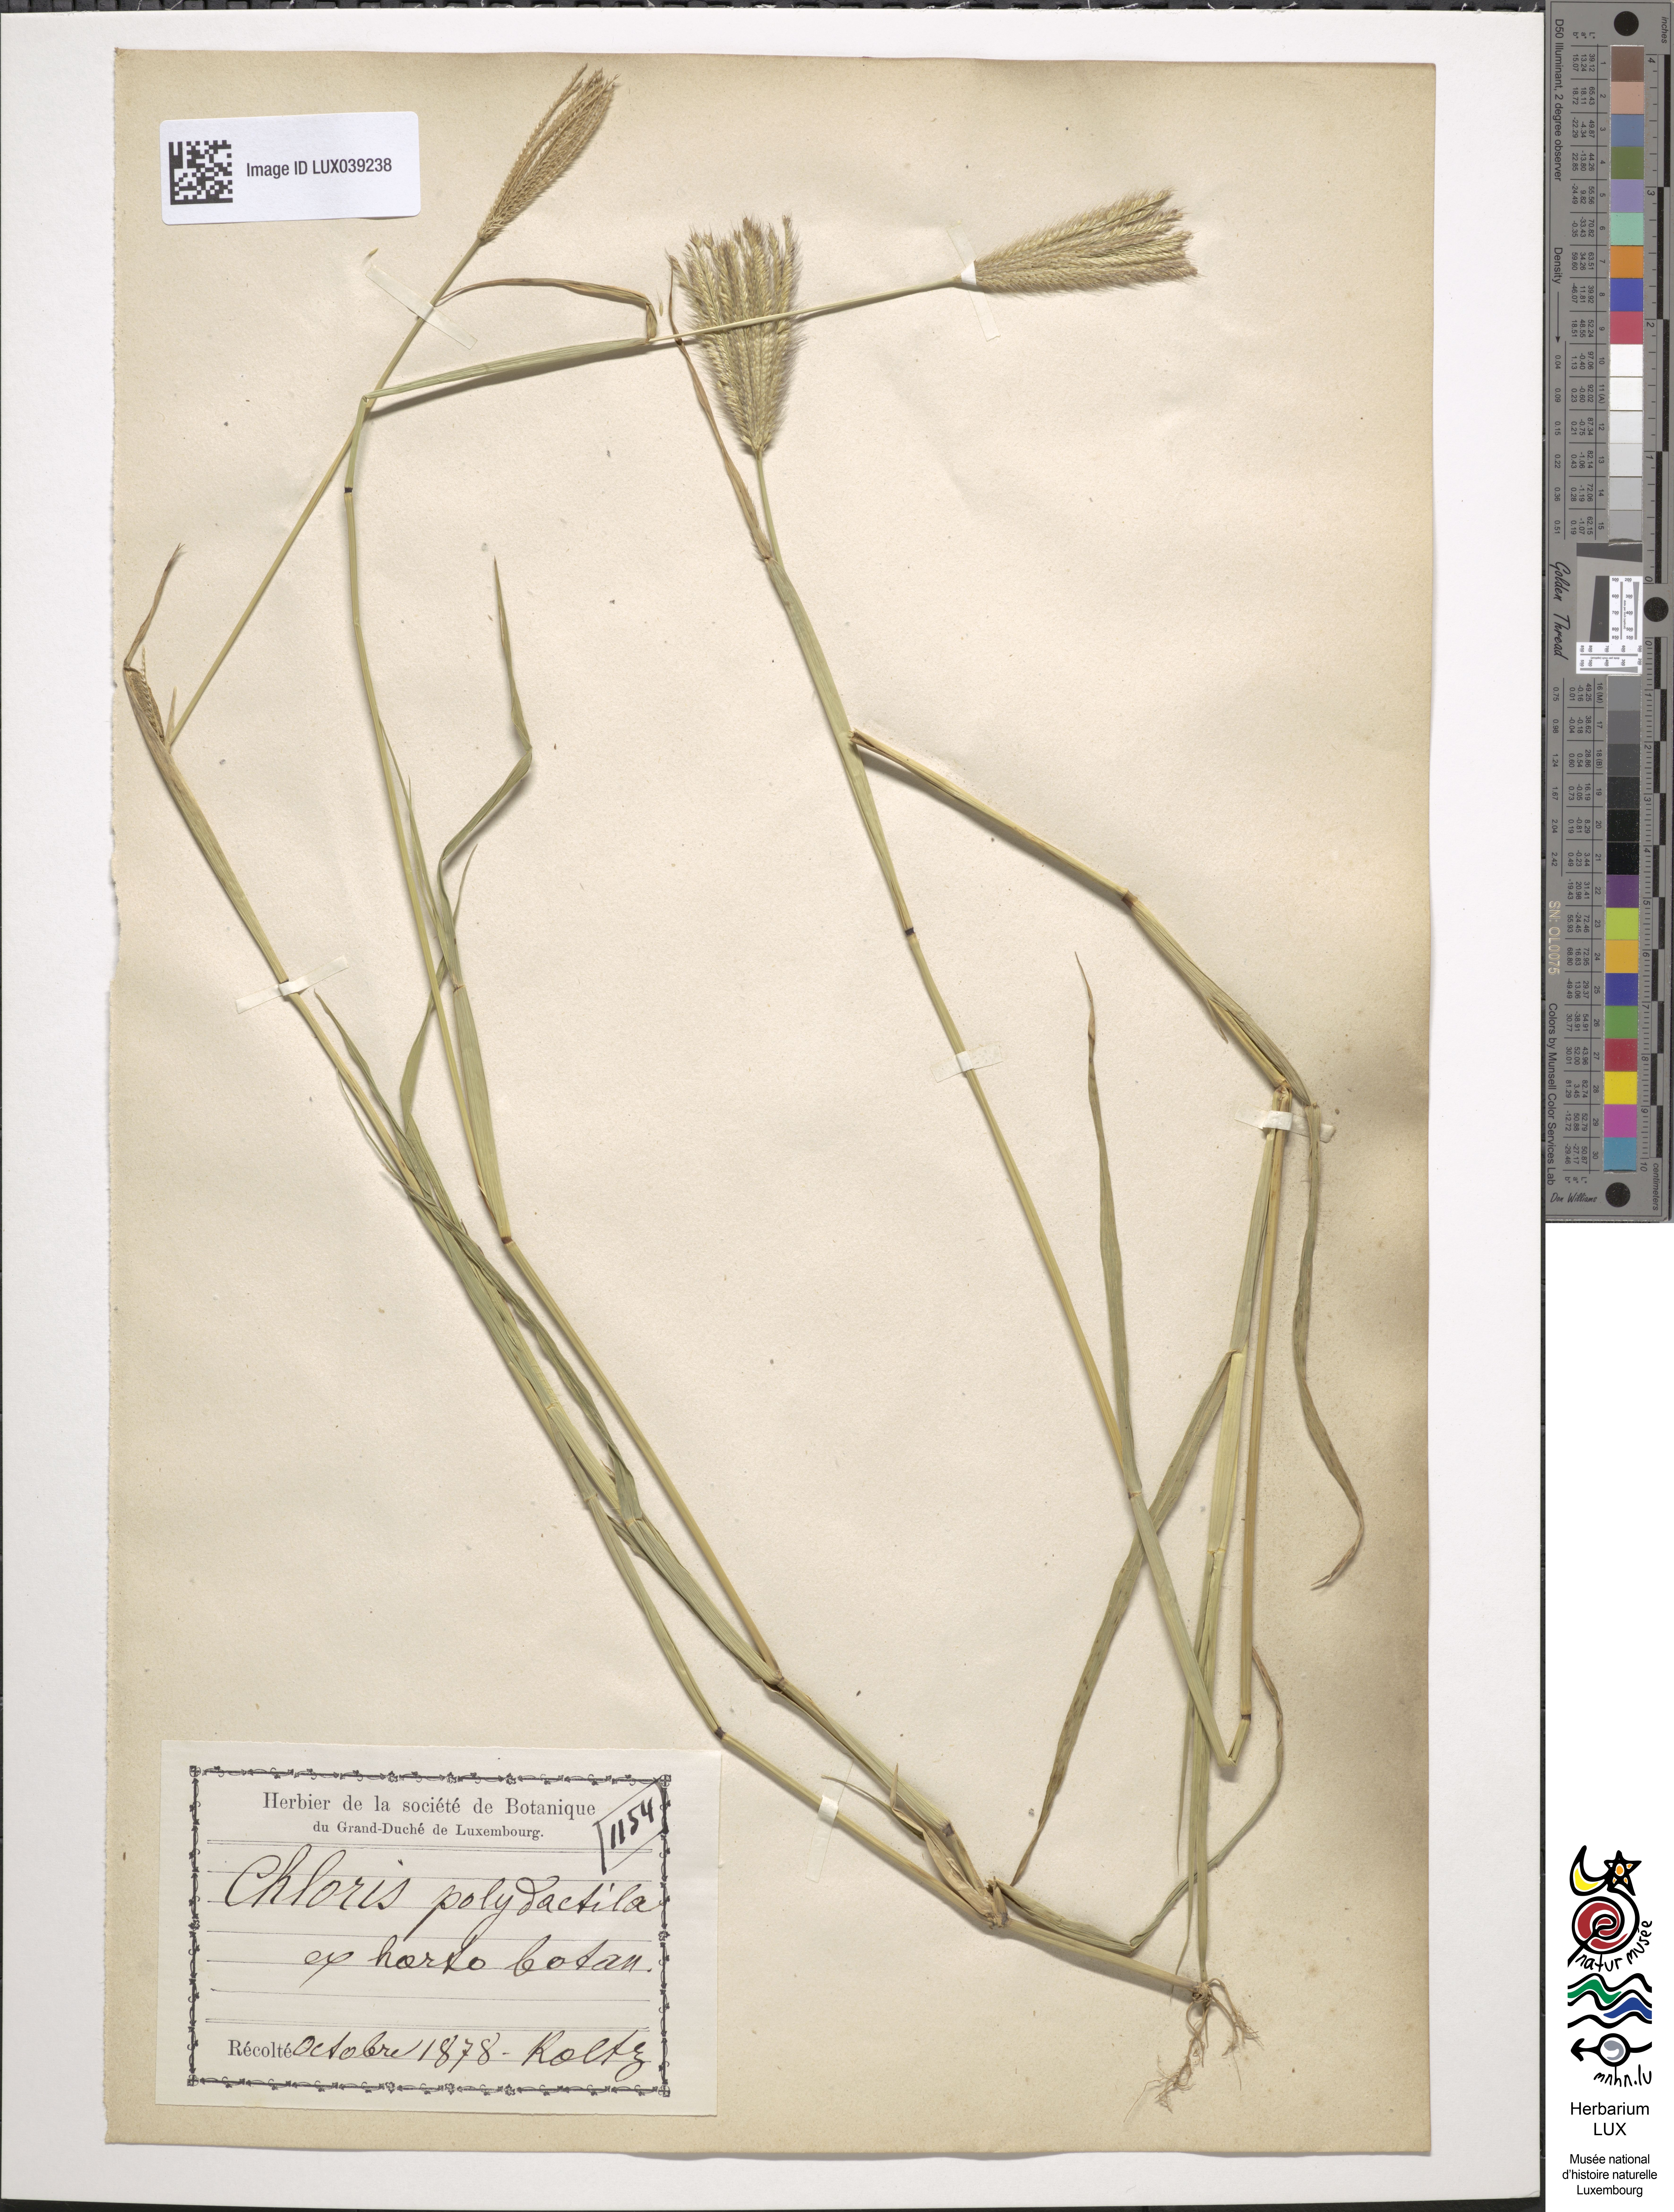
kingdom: Animalia
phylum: Chordata
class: Aves
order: Passeriformes
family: Fringillidae
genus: Chloris
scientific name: Chloris
